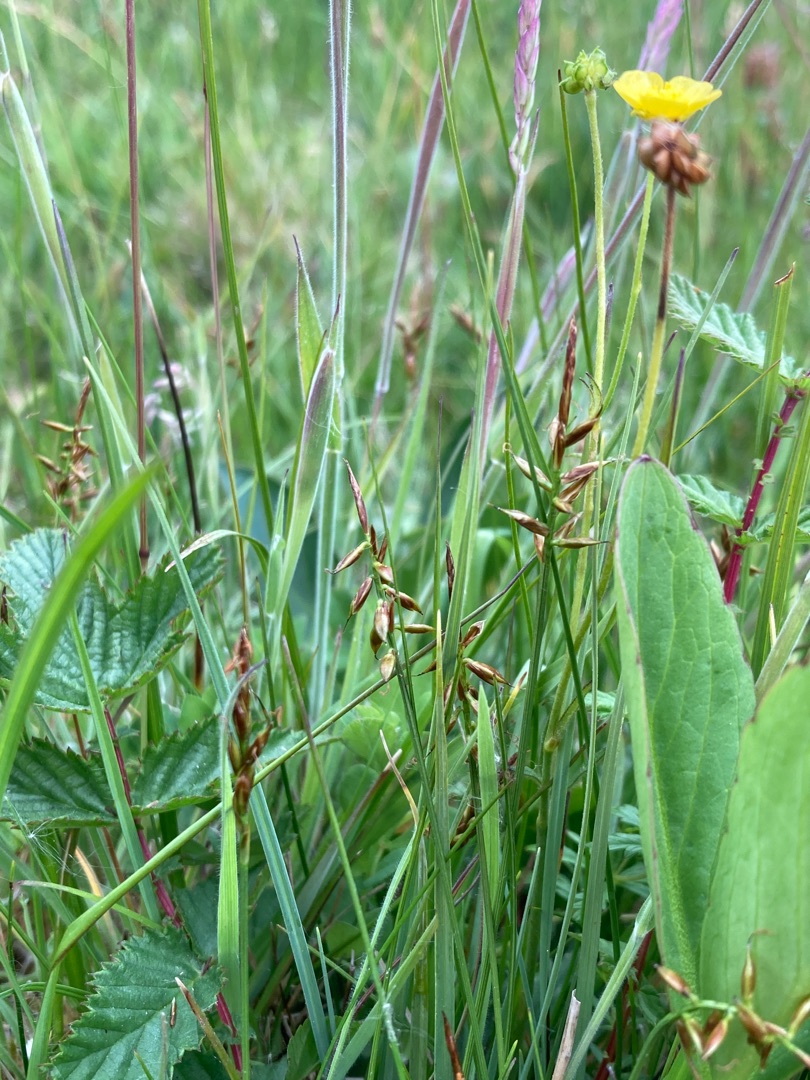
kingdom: Plantae
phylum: Tracheophyta
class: Liliopsida
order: Poales
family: Cyperaceae
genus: Carex
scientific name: Carex pulicaris
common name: Loppe-star
